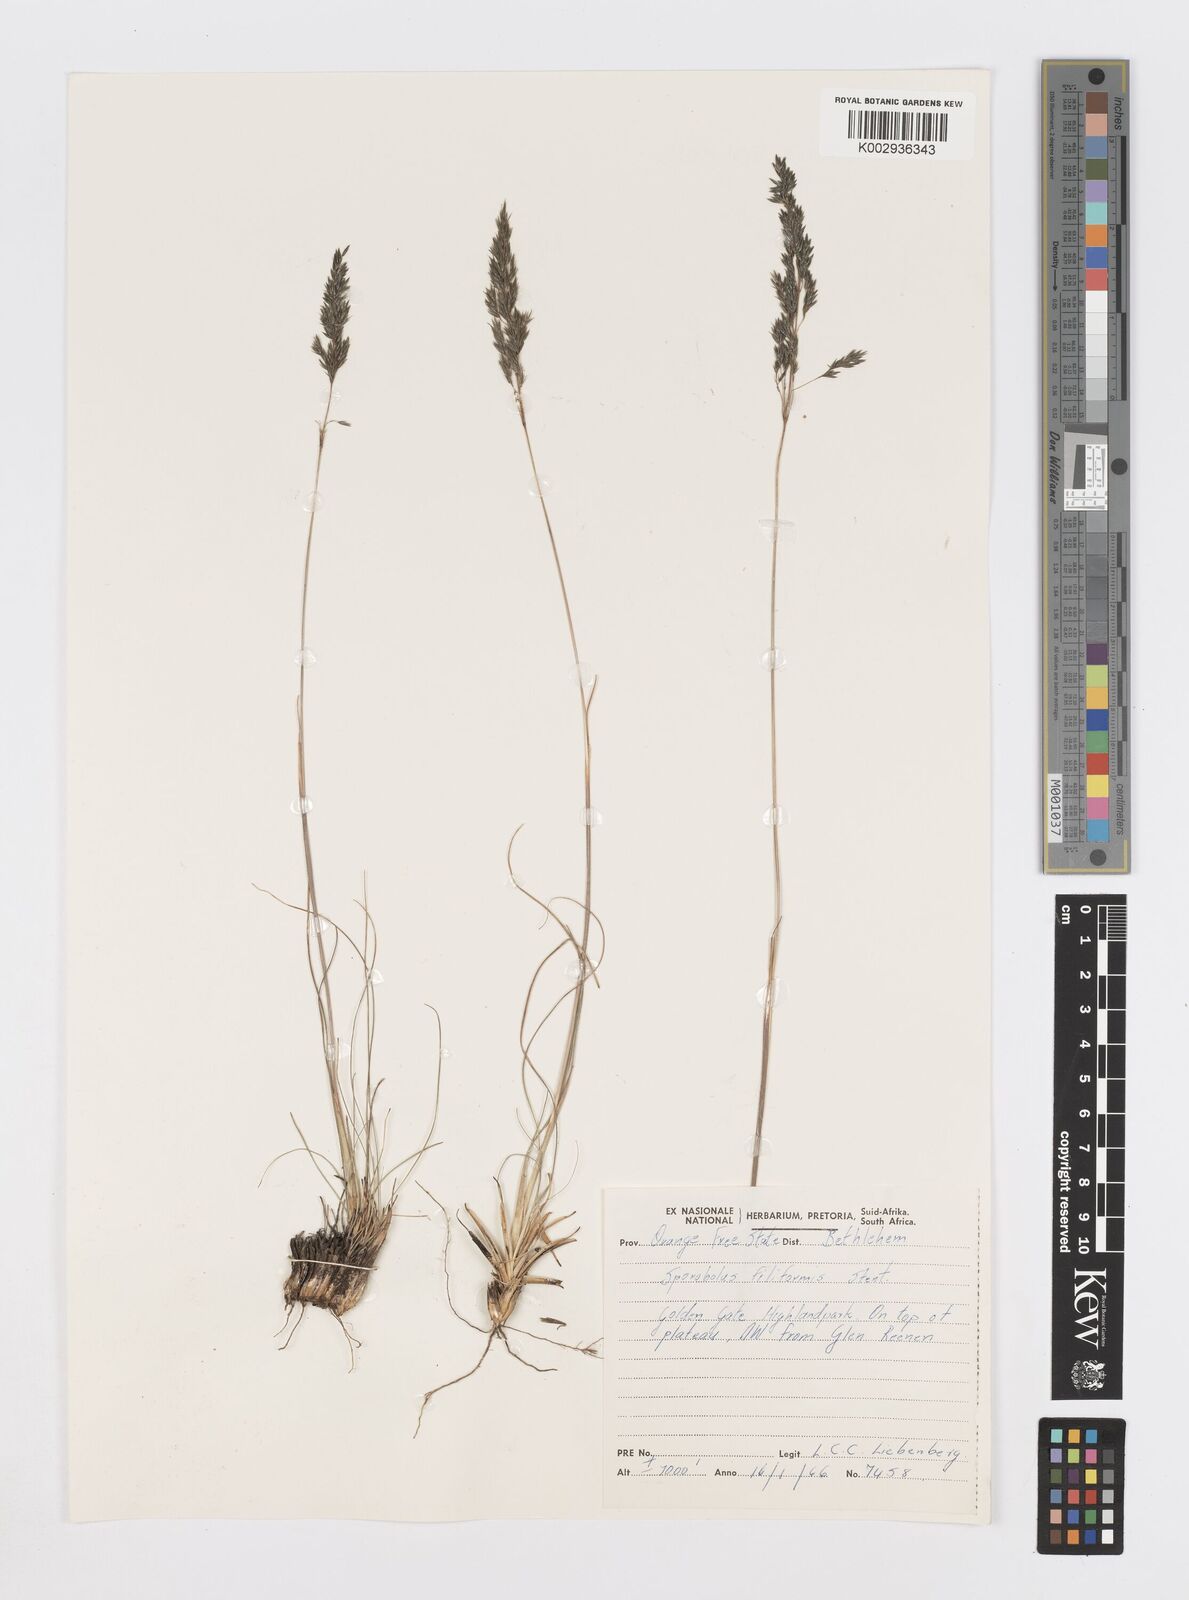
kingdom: Plantae
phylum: Tracheophyta
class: Liliopsida
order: Poales
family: Poaceae
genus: Sporobolus
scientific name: Sporobolus centrifugus
